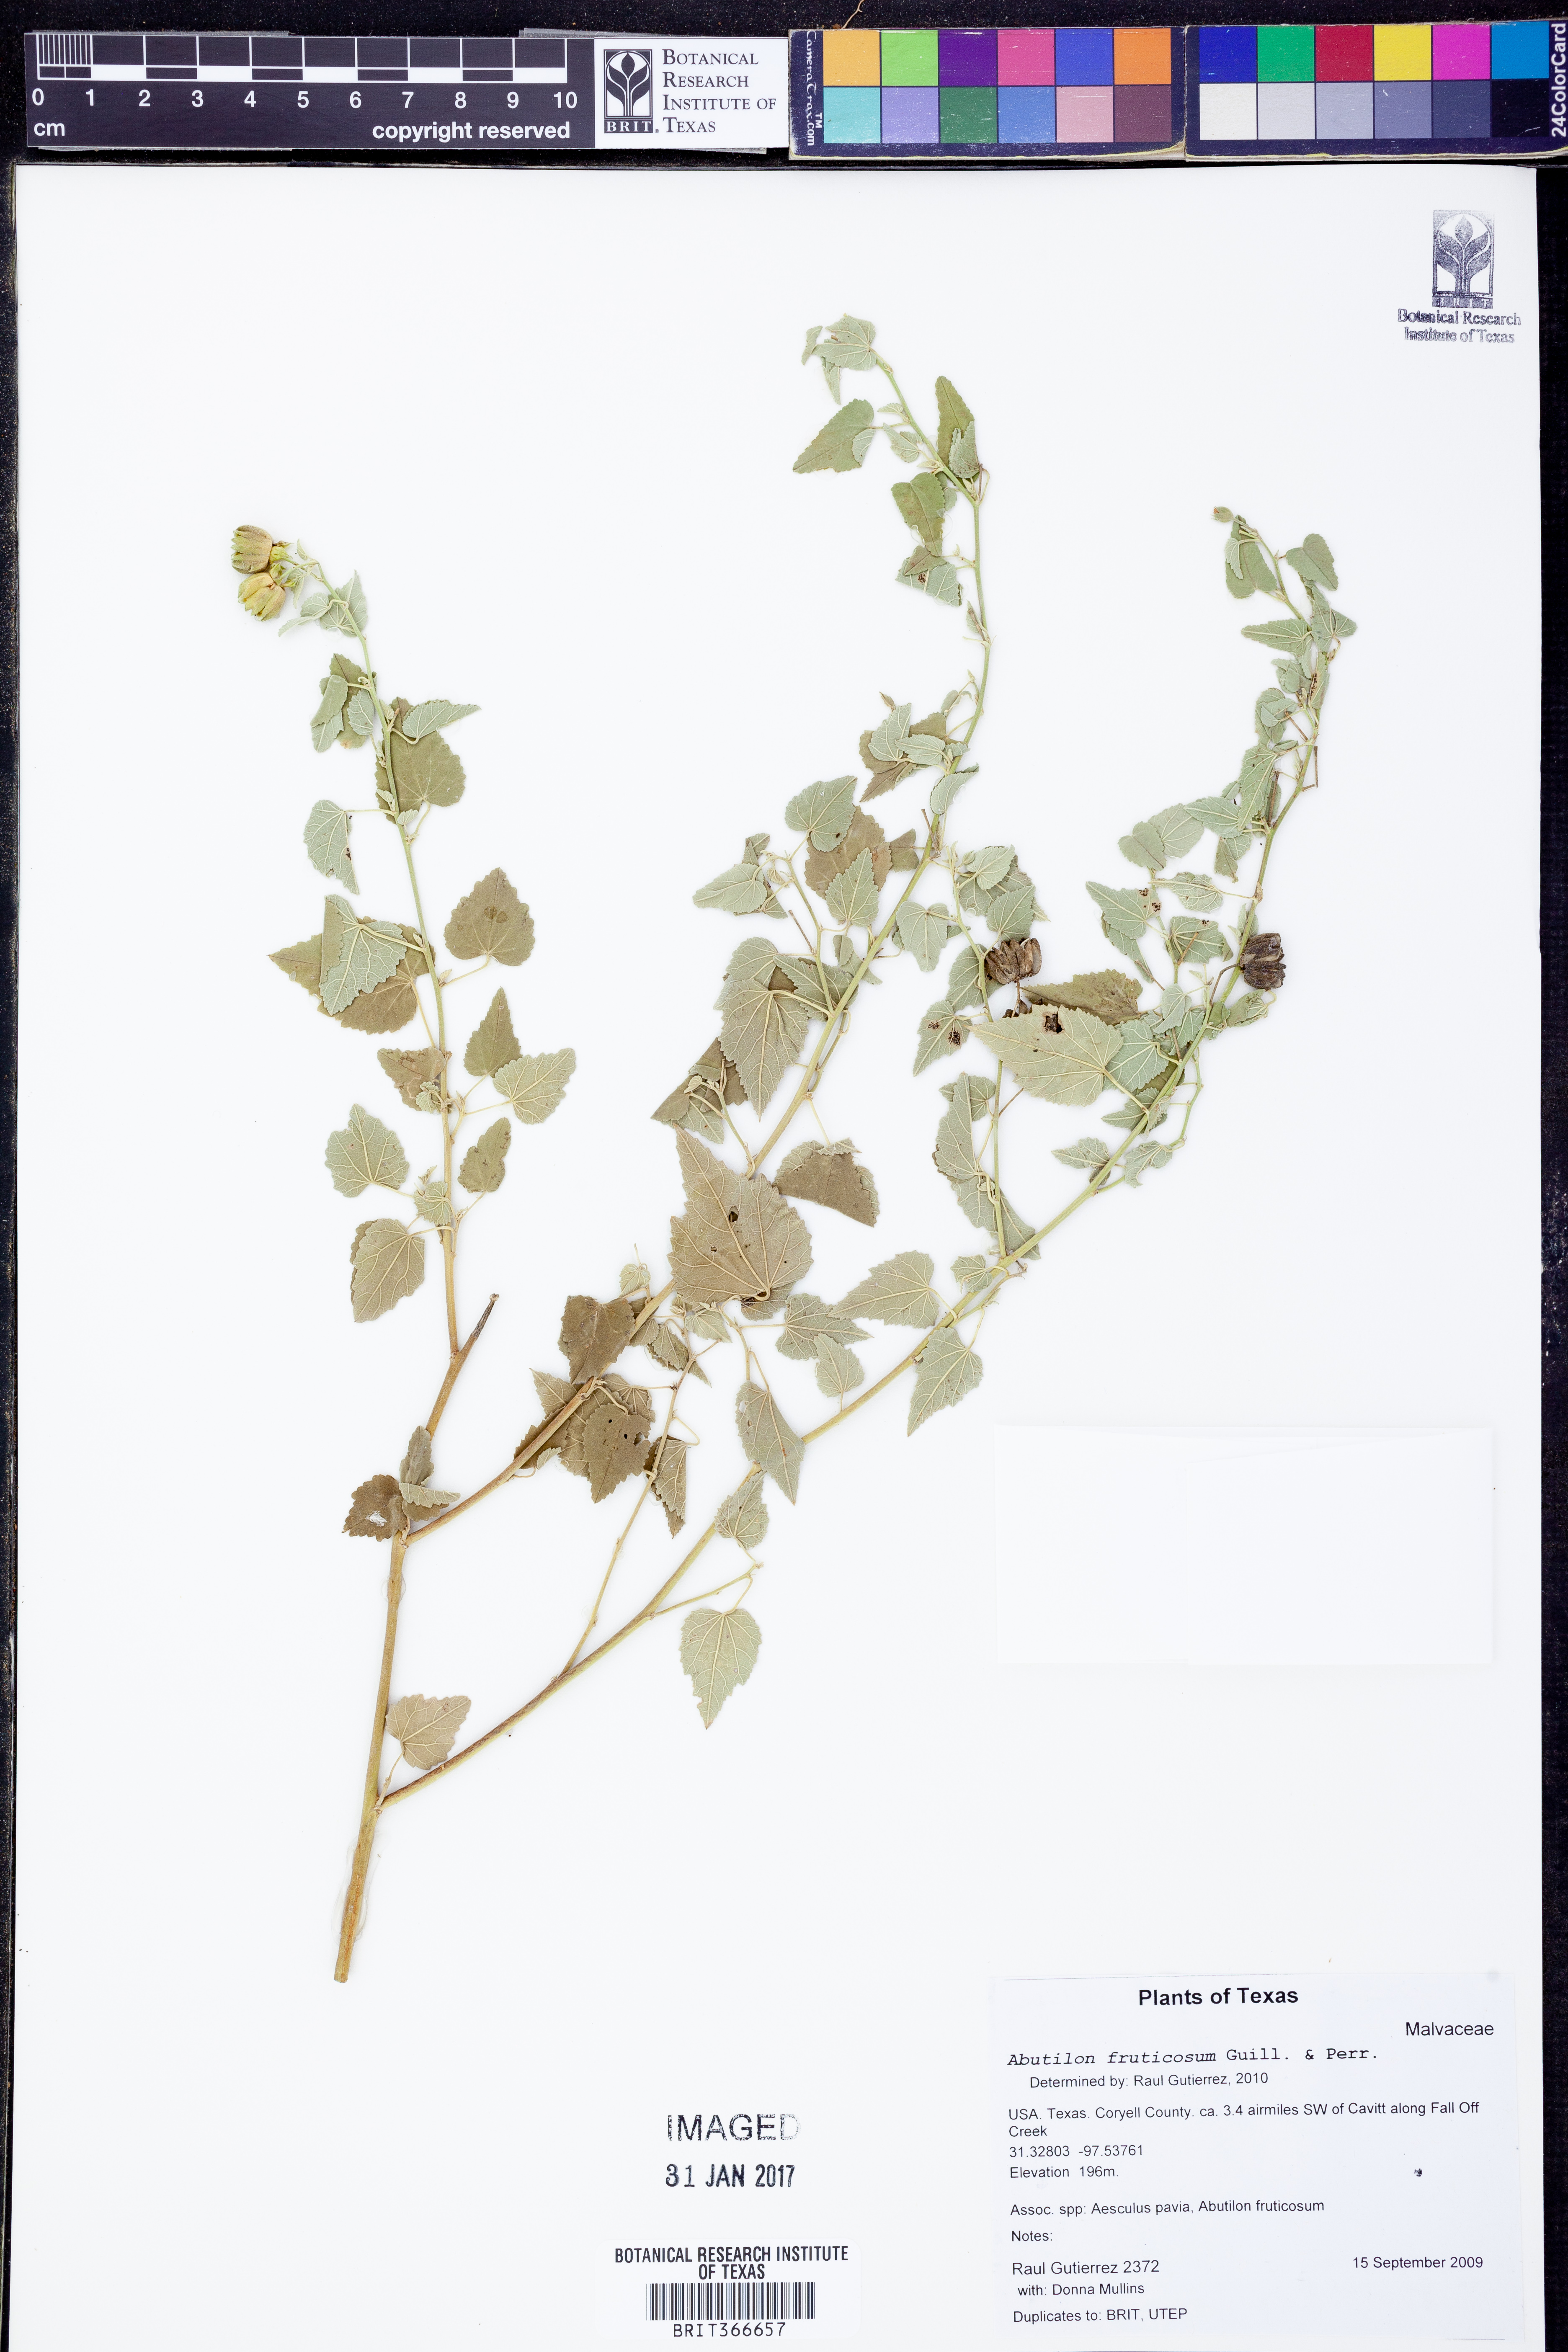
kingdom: Plantae
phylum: Tracheophyta
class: Magnoliopsida
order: Malvales
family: Malvaceae
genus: Abutilon
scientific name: Abutilon fruticosum
